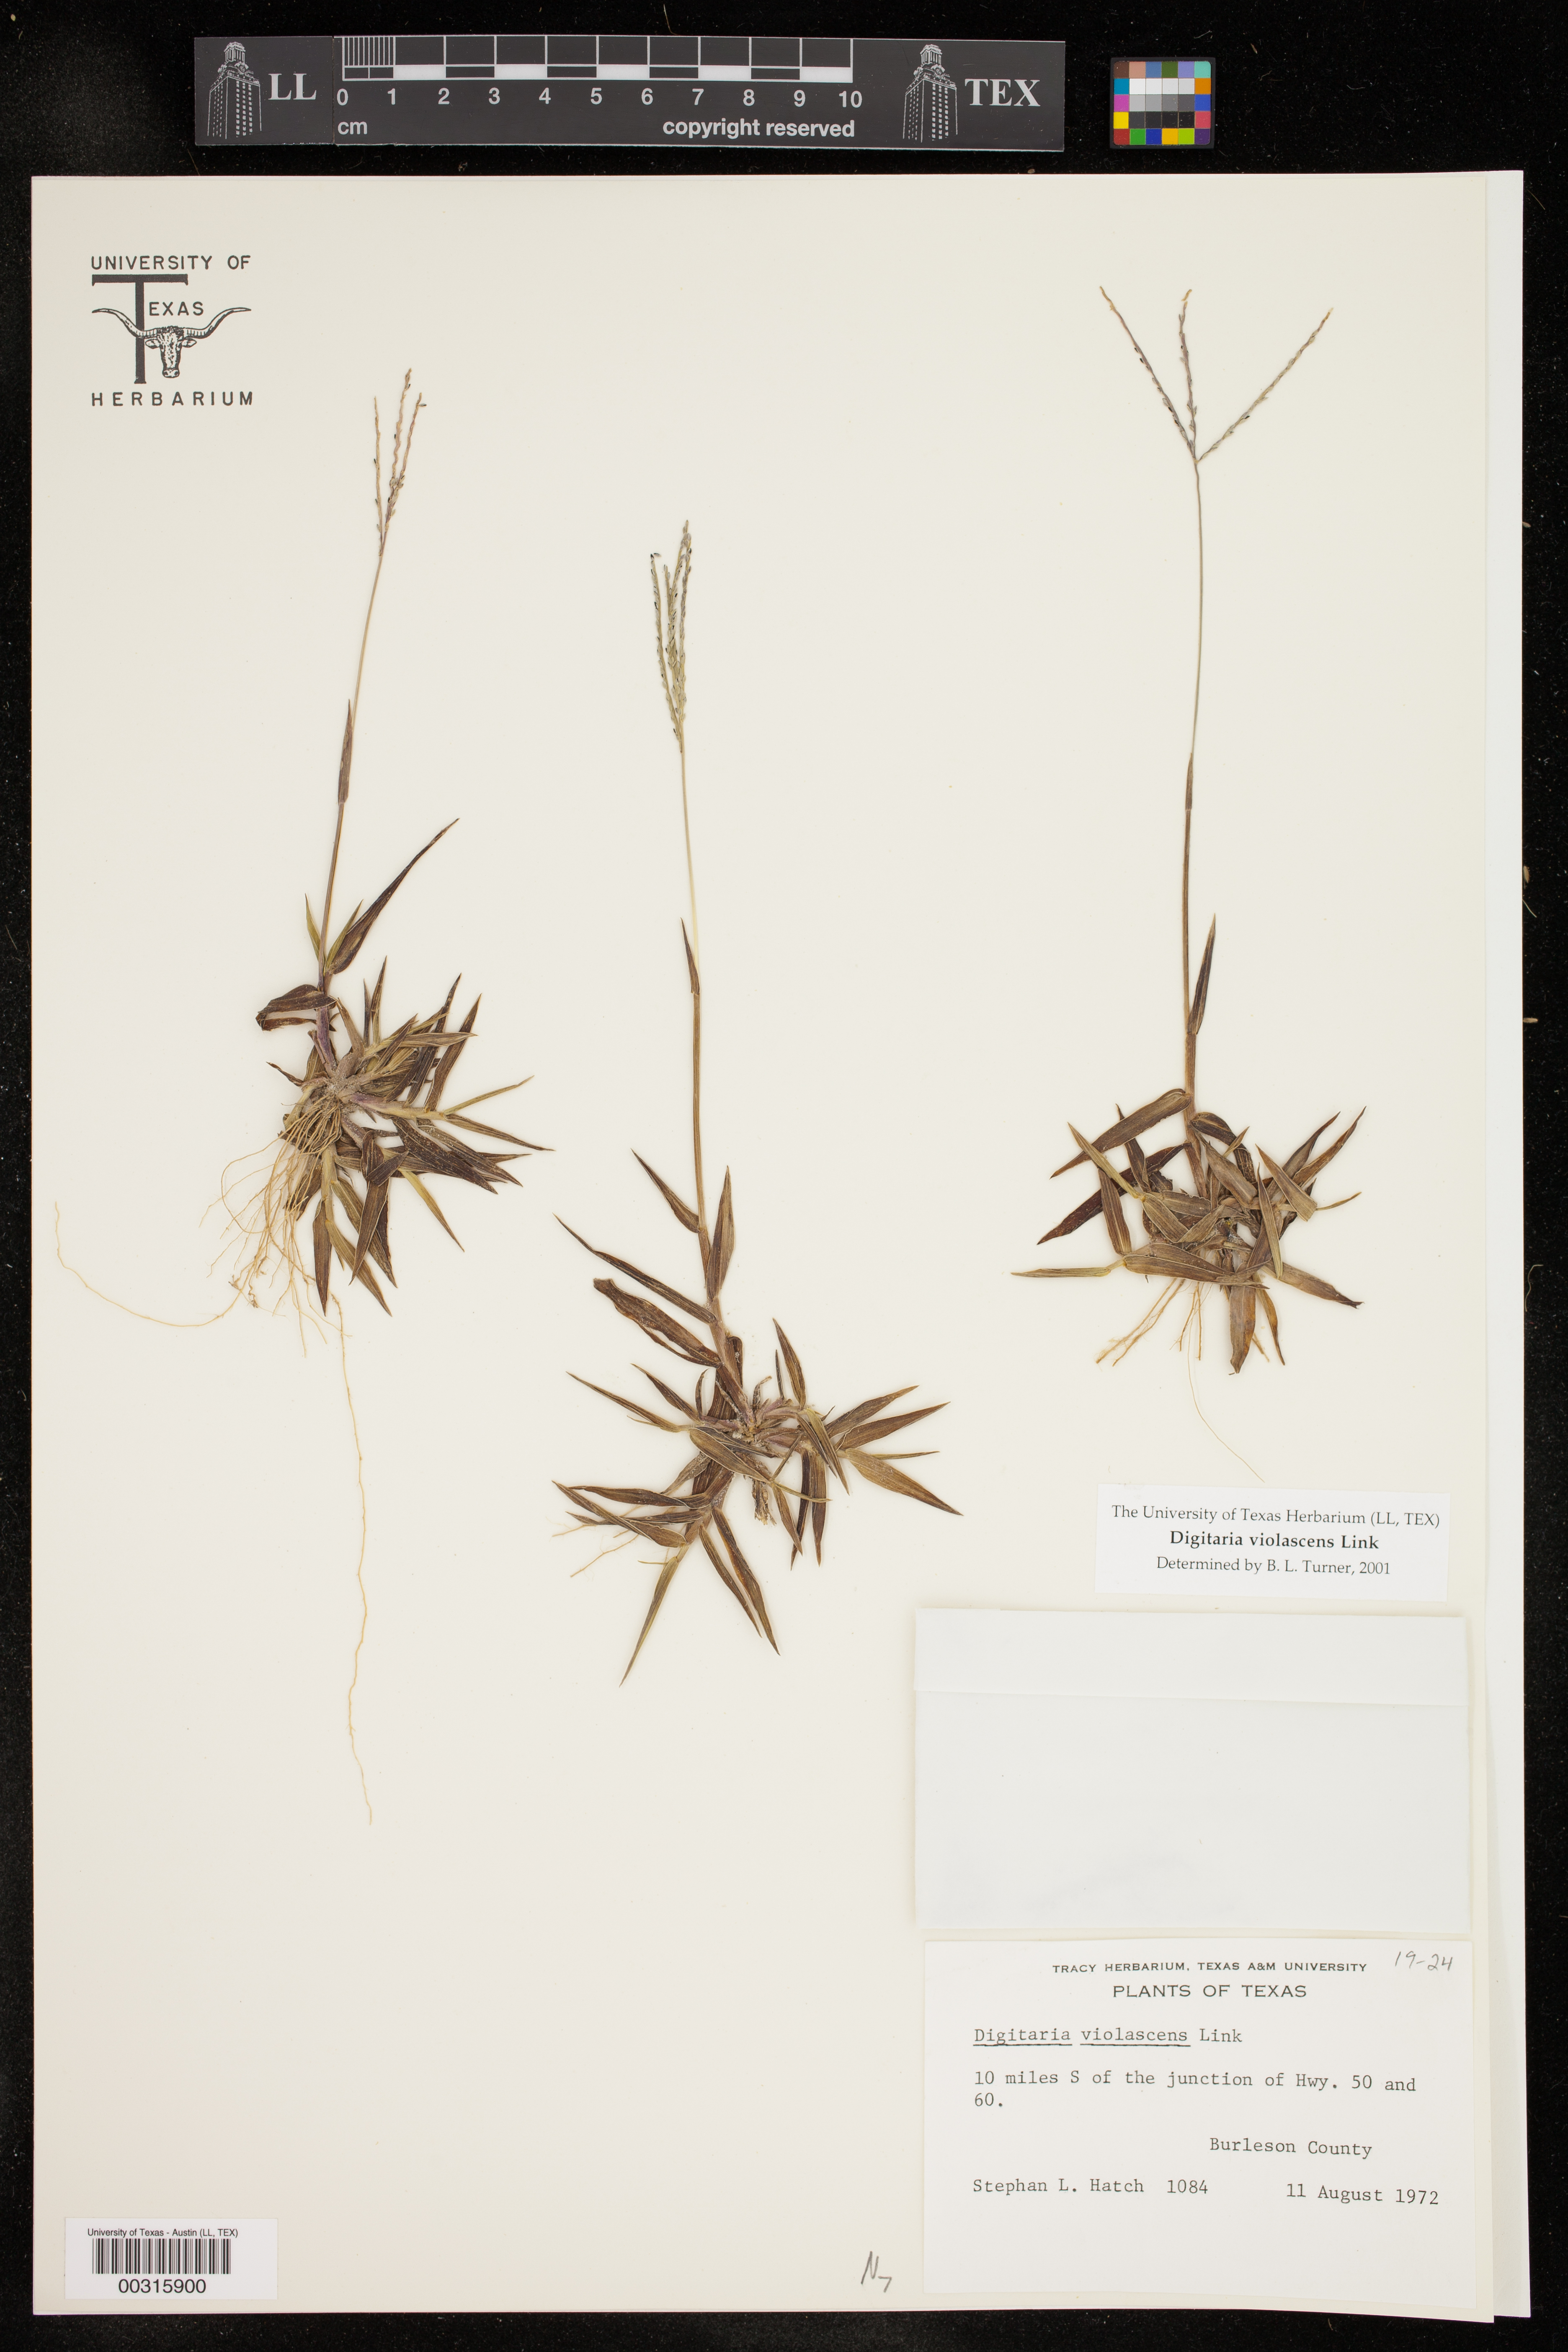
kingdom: Plantae
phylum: Tracheophyta
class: Liliopsida
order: Poales
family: Poaceae
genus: Digitaria
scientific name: Digitaria violascens
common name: Violet crabgrass
